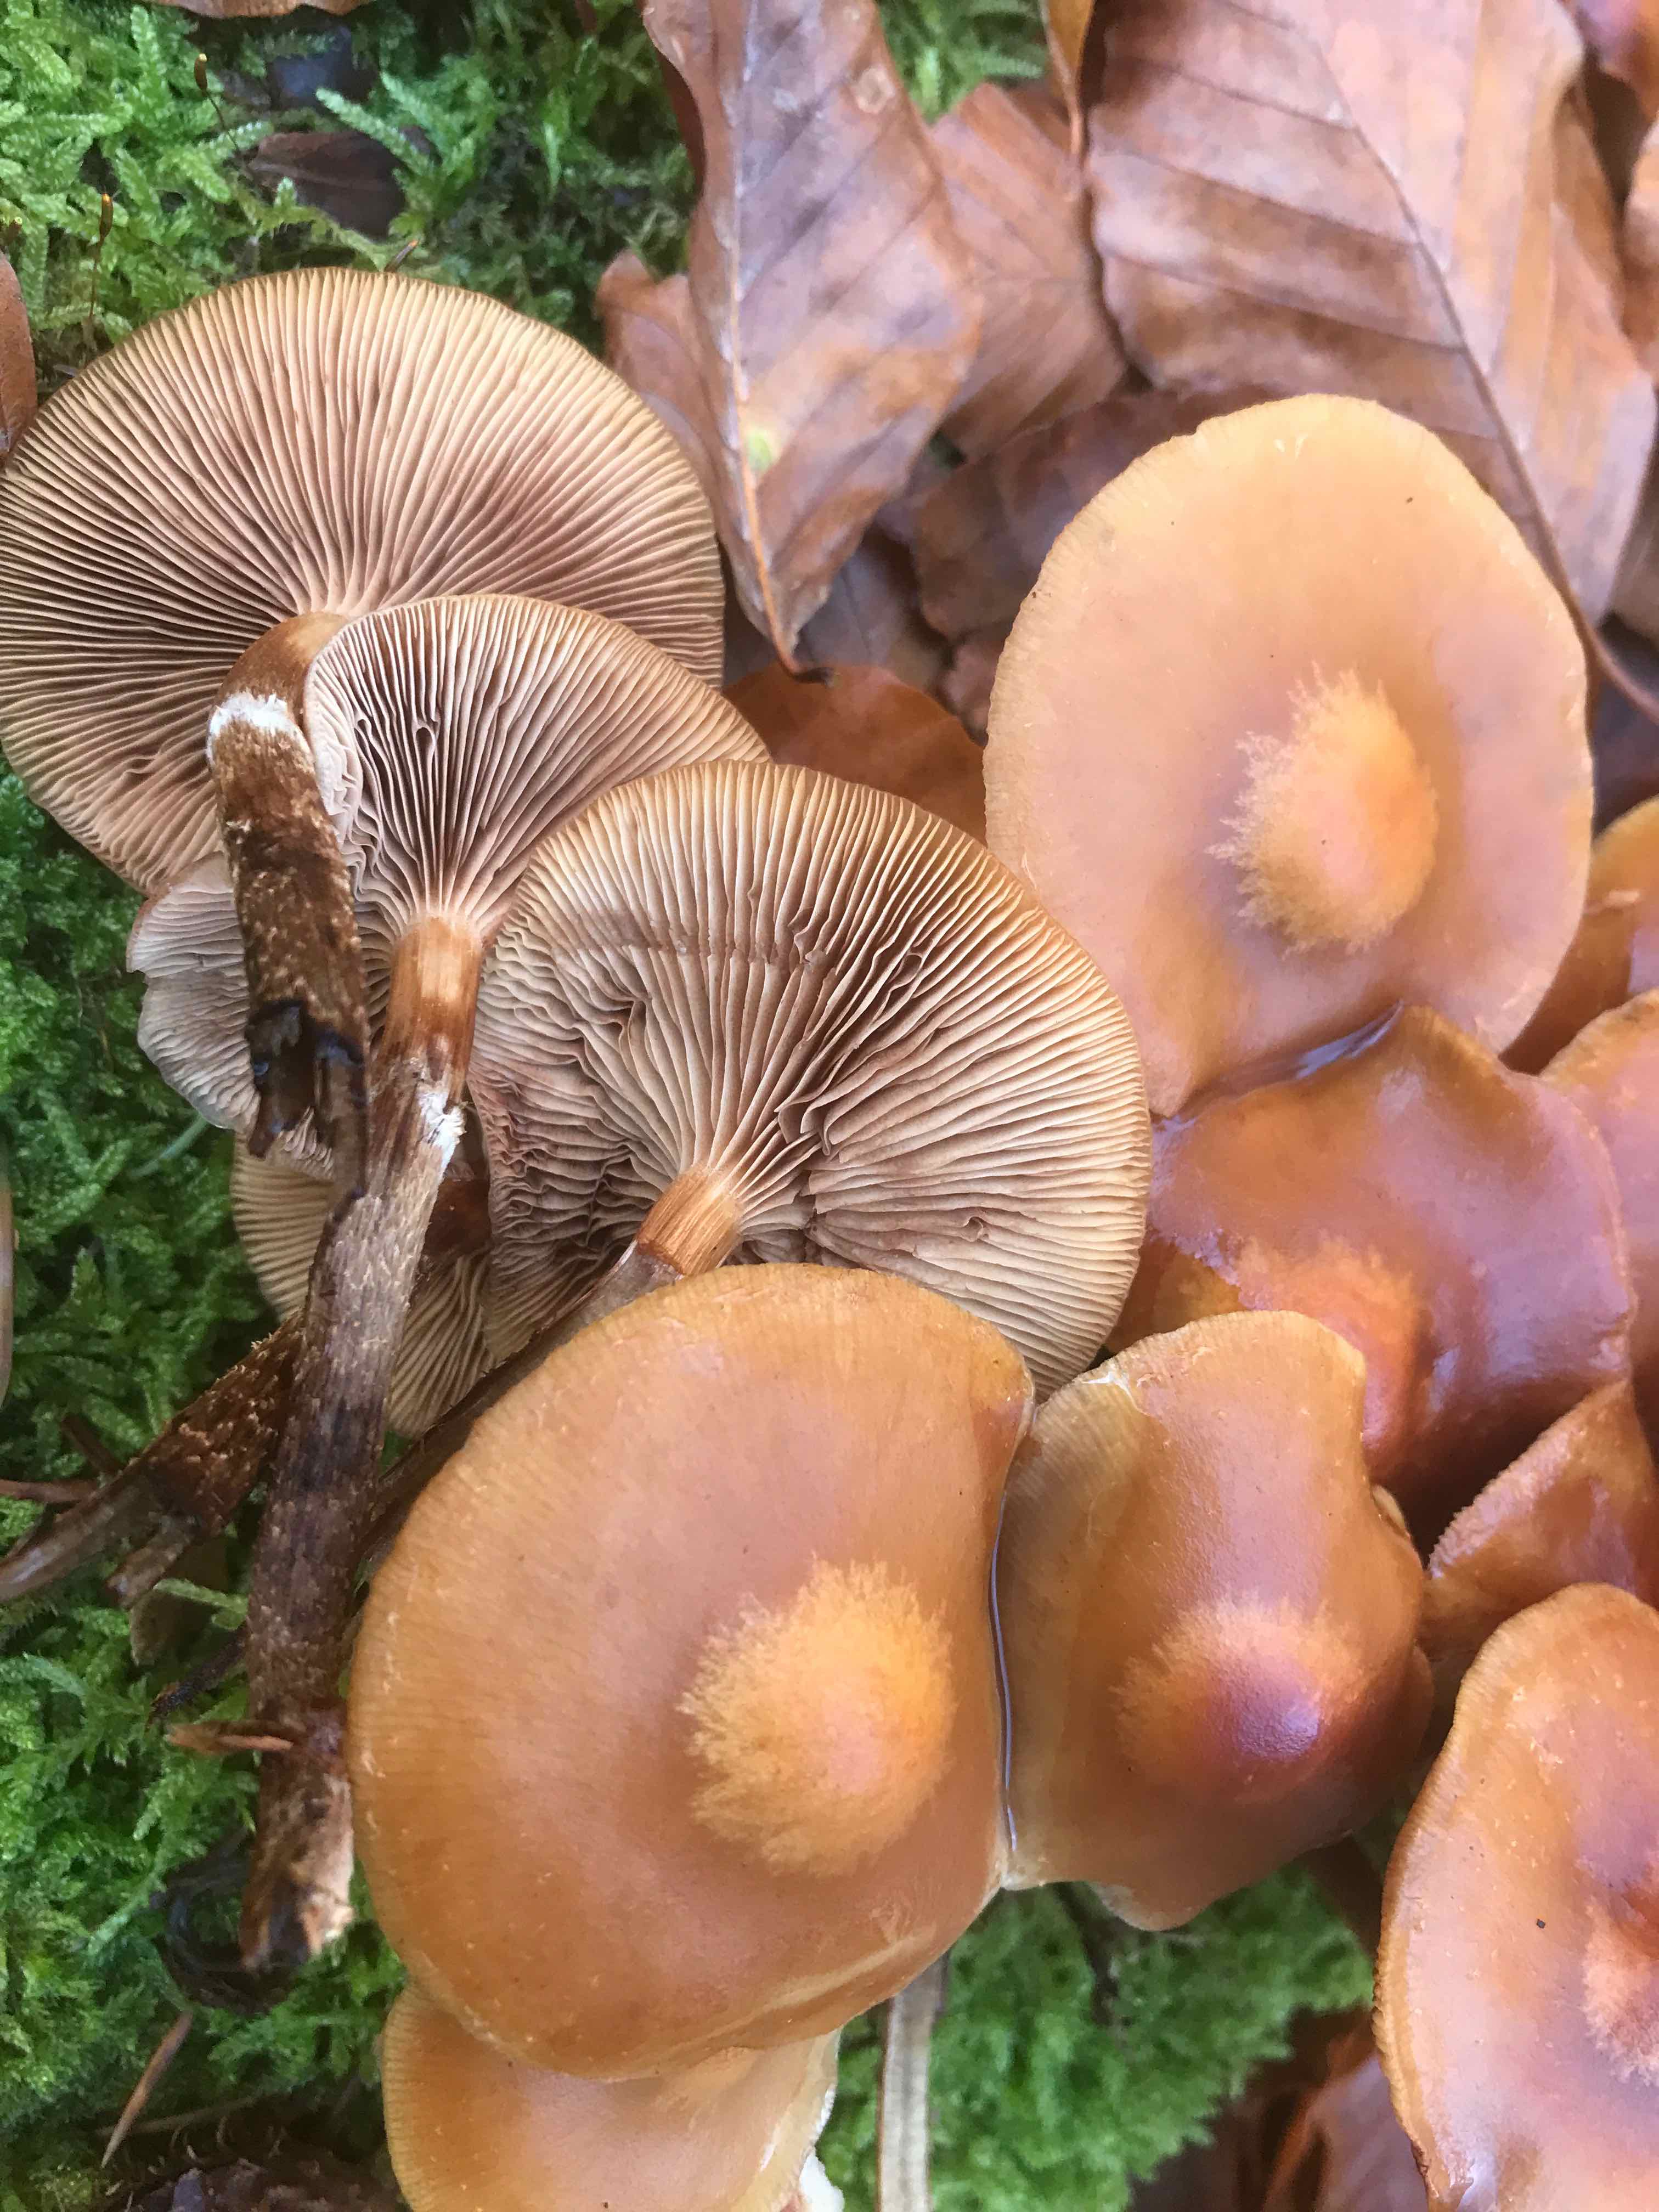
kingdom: Fungi
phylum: Basidiomycota
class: Agaricomycetes
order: Agaricales
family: Strophariaceae
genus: Kuehneromyces
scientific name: Kuehneromyces mutabilis
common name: foranderlig skælhat
